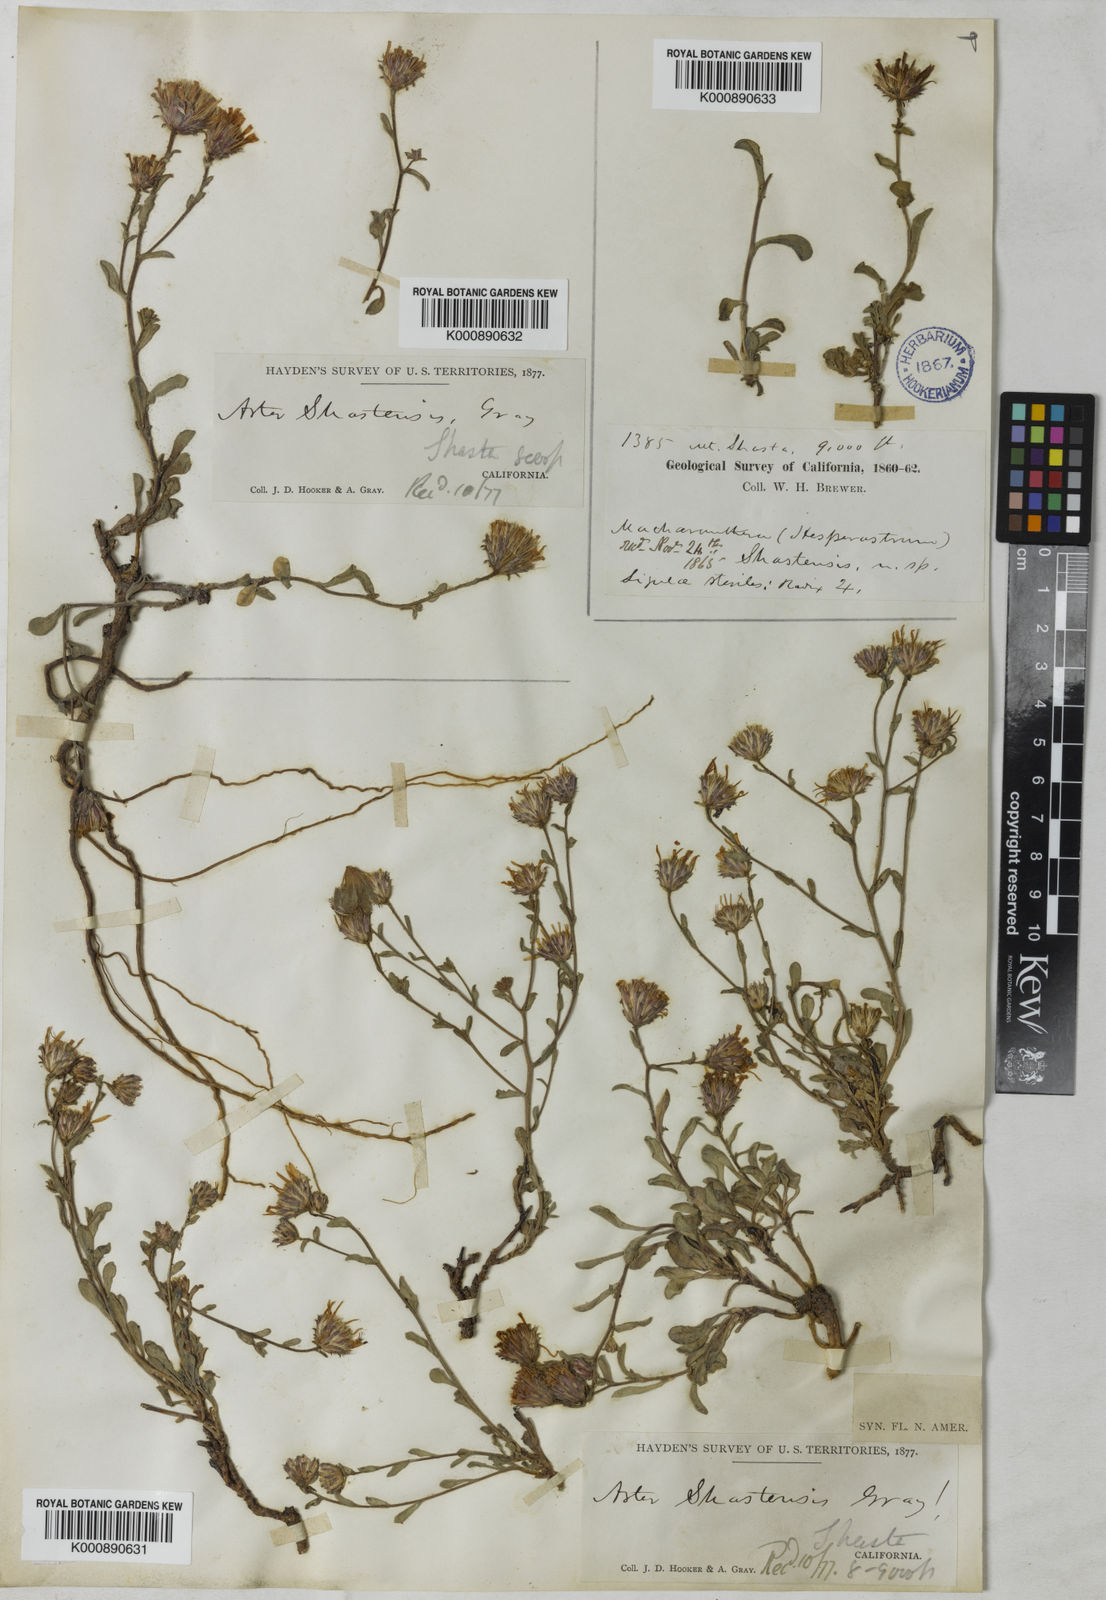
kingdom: Plantae
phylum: Tracheophyta
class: Magnoliopsida
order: Asterales
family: Asteraceae
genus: Dieteria
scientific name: Dieteria shastensis
